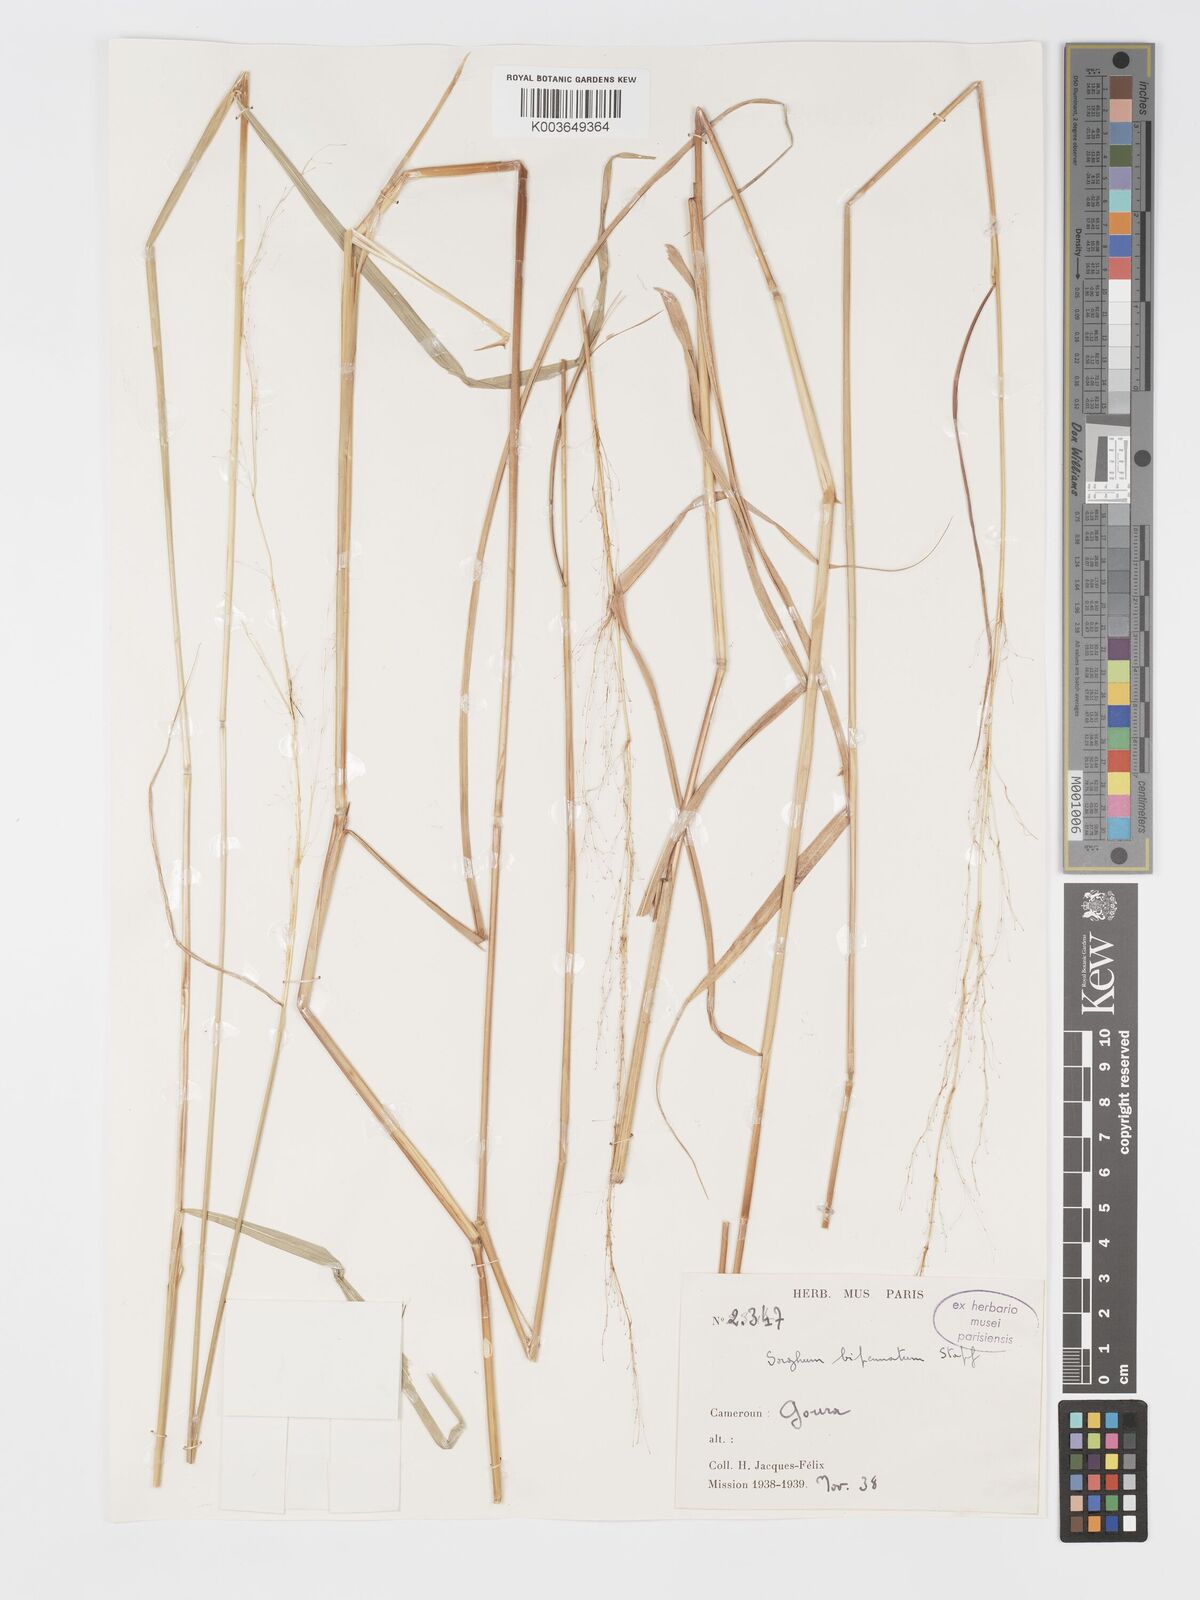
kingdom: Plantae
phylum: Tracheophyta
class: Liliopsida
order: Poales
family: Poaceae
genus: Sorghastrum
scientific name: Sorghastrum incompletum
